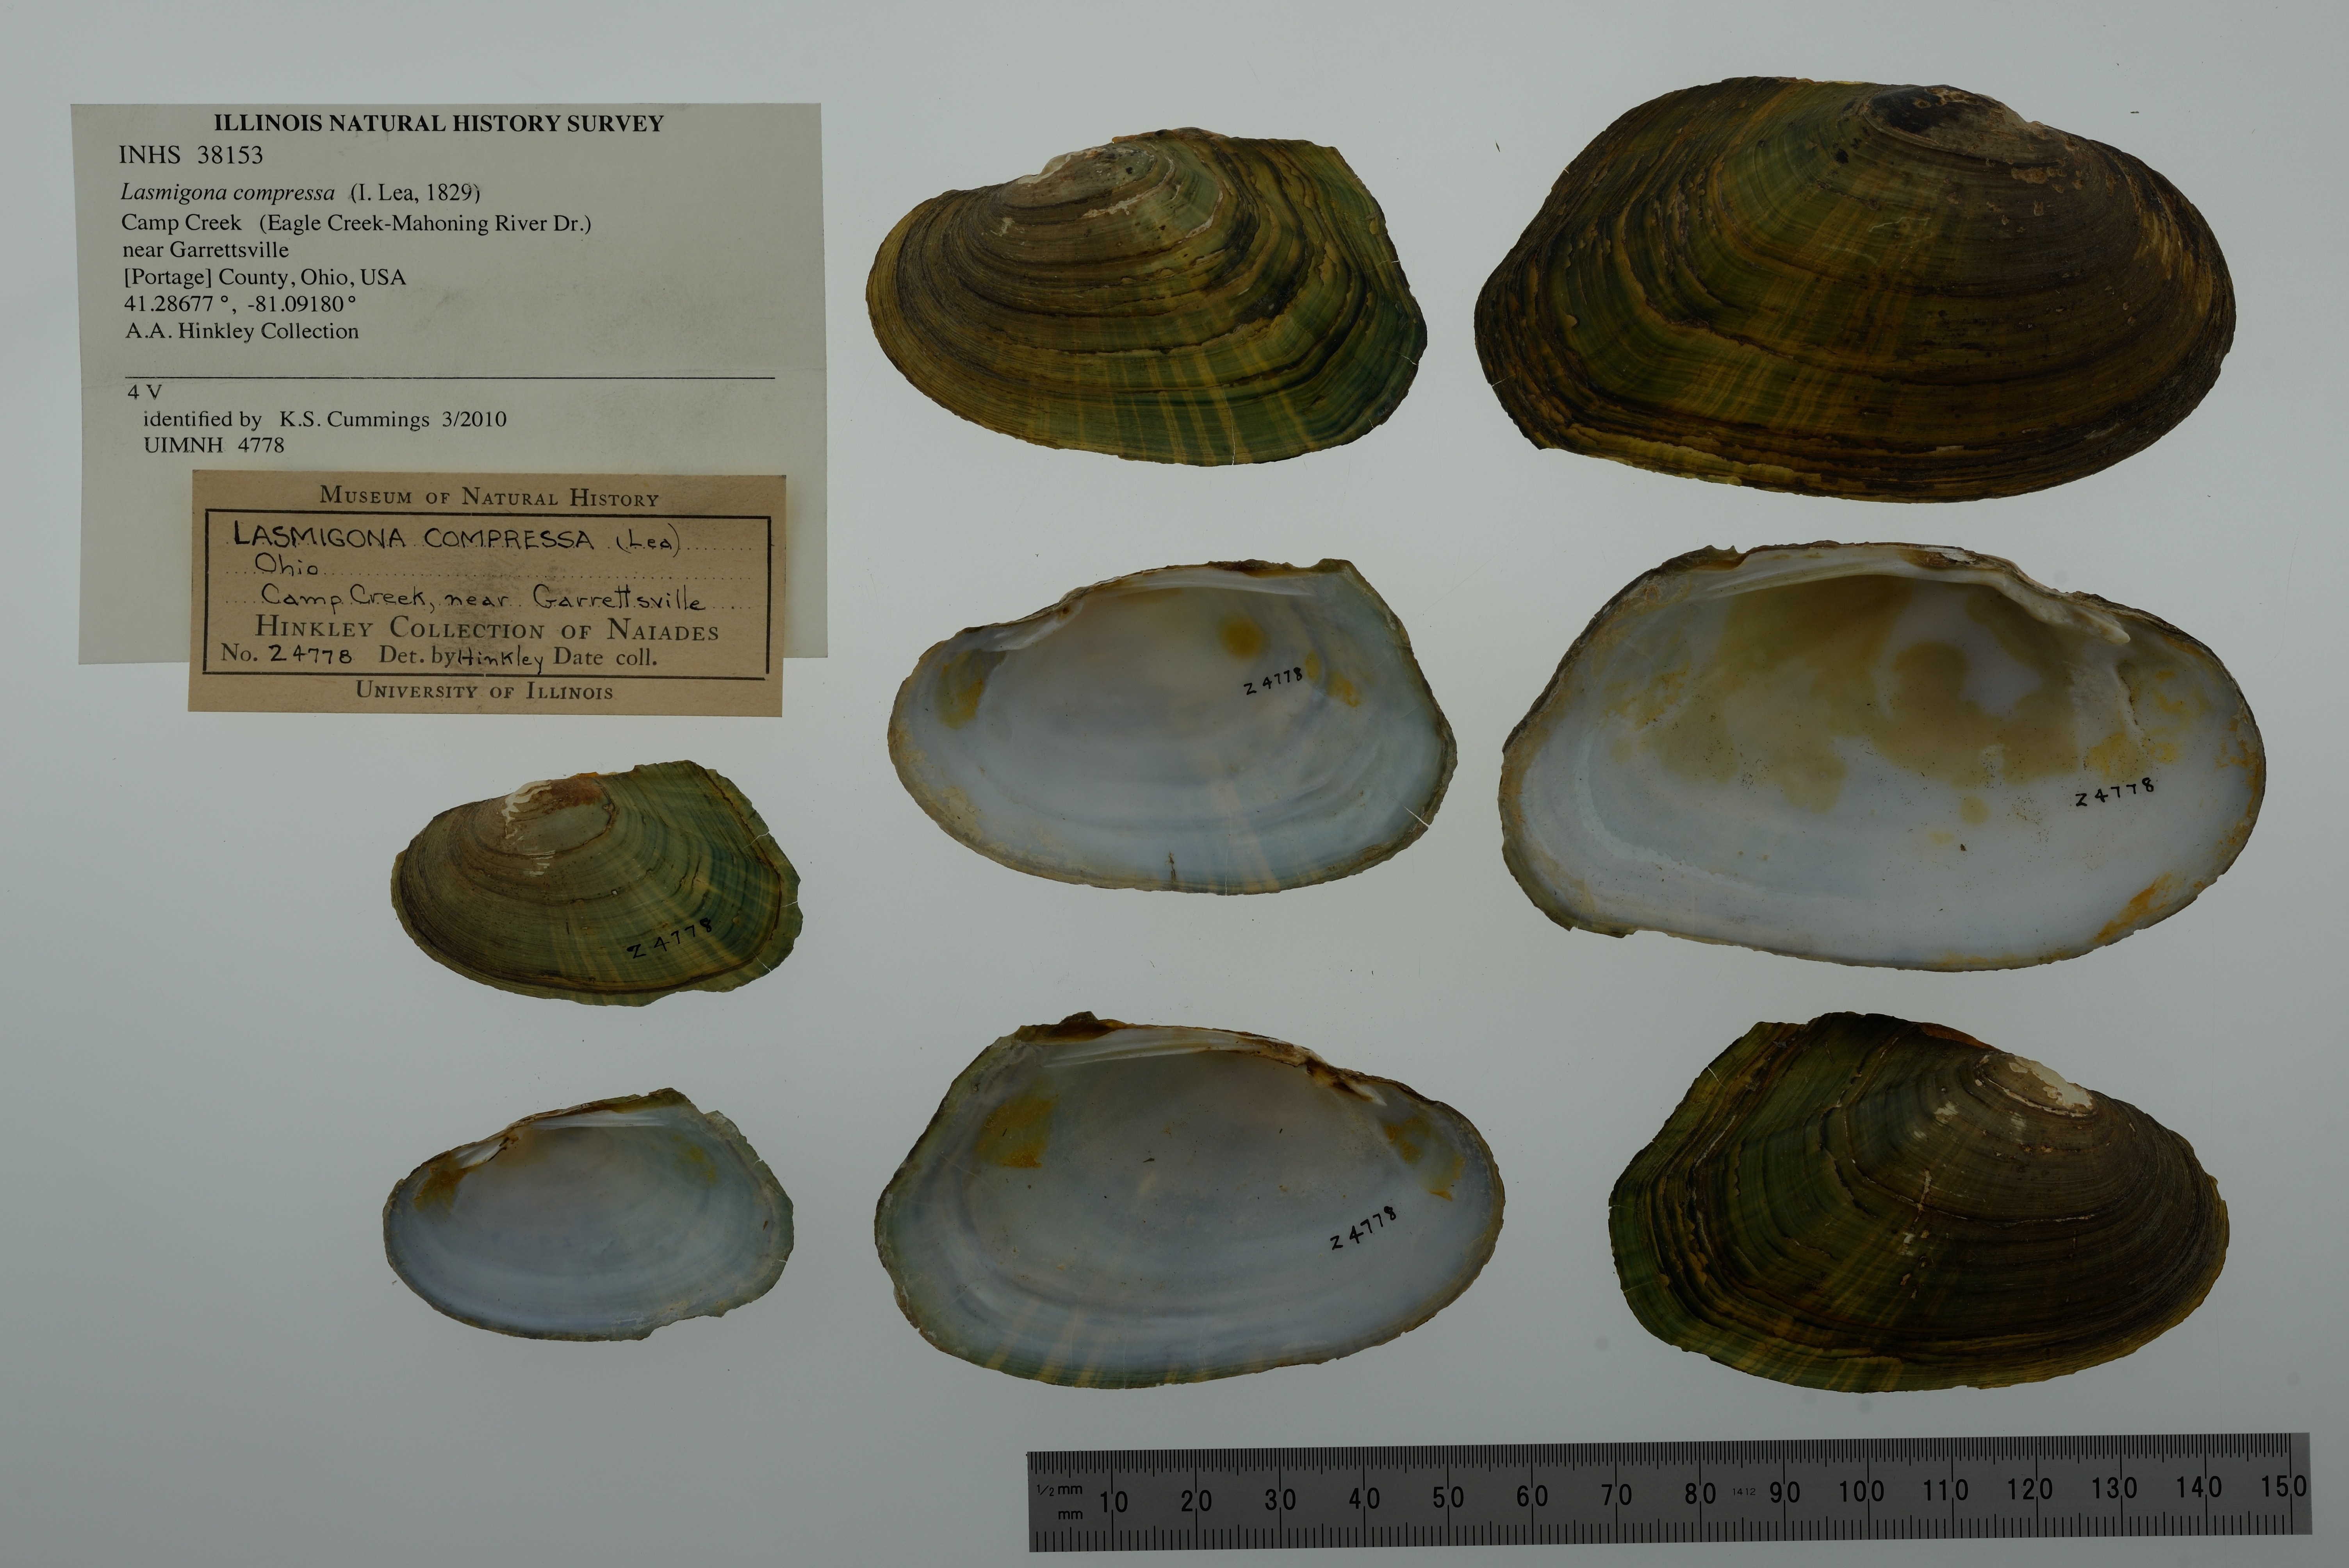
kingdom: Animalia
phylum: Mollusca
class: Bivalvia
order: Unionida
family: Unionidae
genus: Lasmigona
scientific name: Lasmigona compressa
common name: Creek heelsplitter
